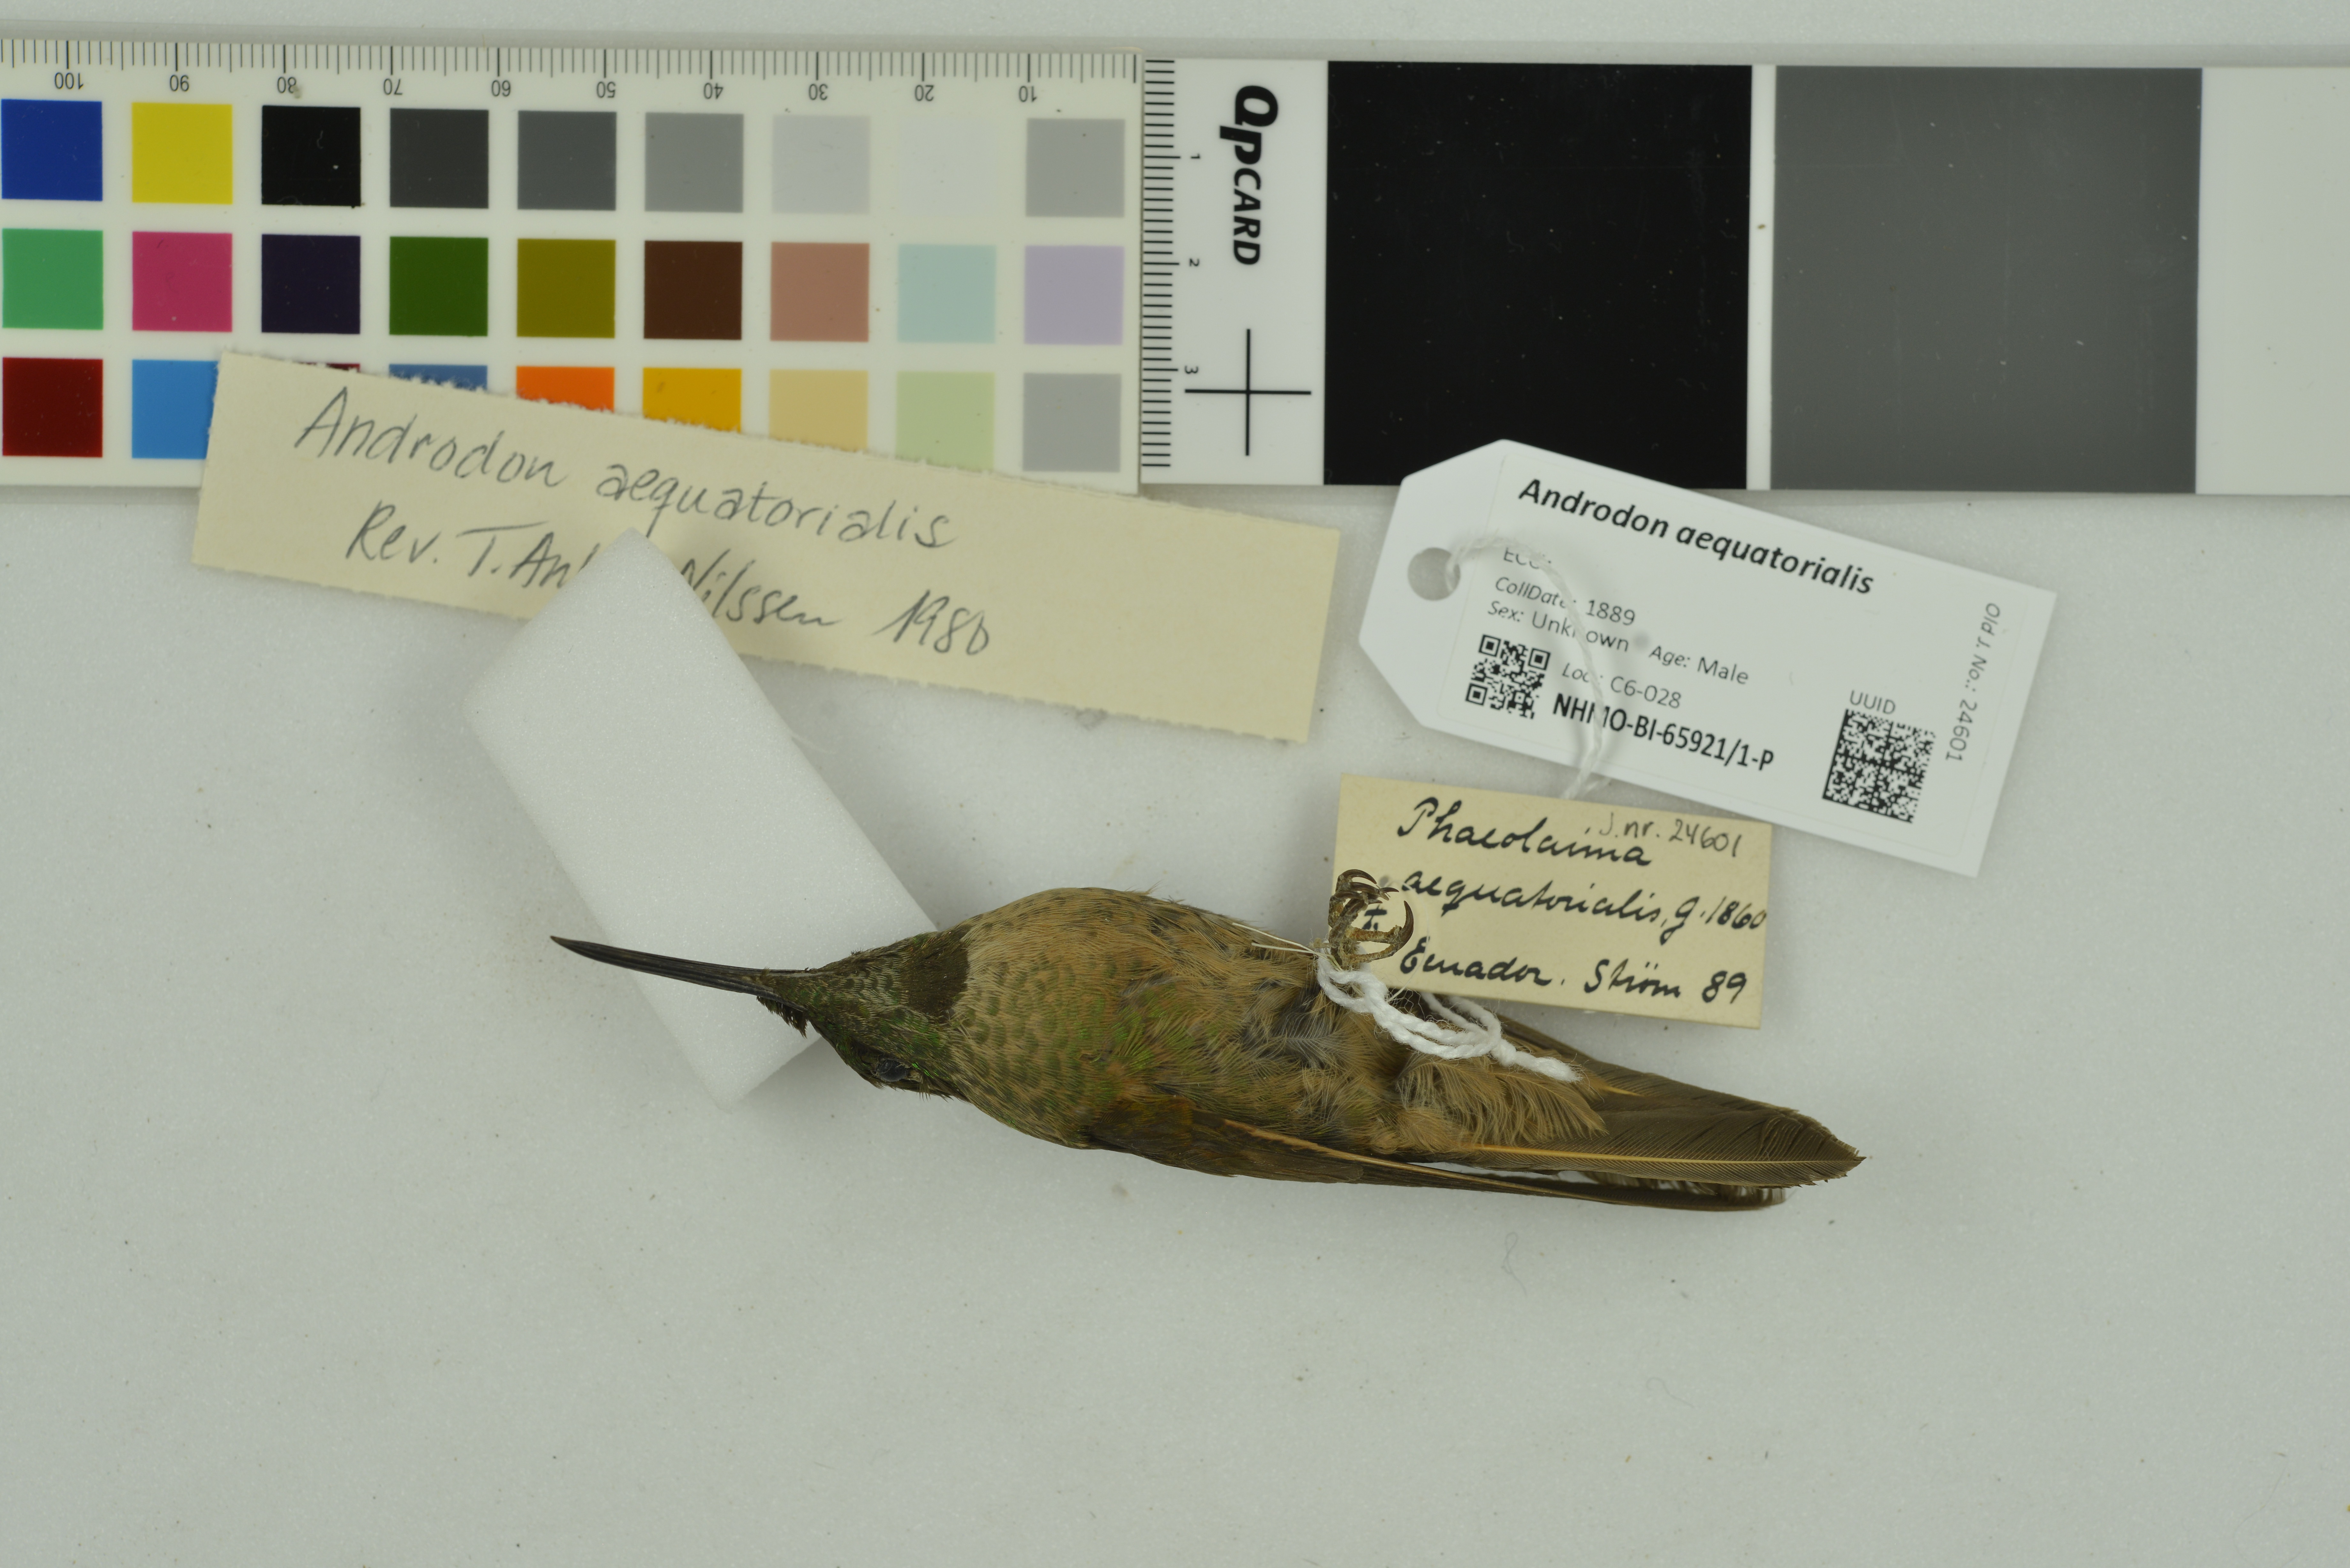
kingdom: Animalia
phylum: Chordata
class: Aves
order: Apodiformes
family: Trochilidae
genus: Androdon
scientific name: Androdon aequatorialis
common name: Tooth-billed hummingbird
